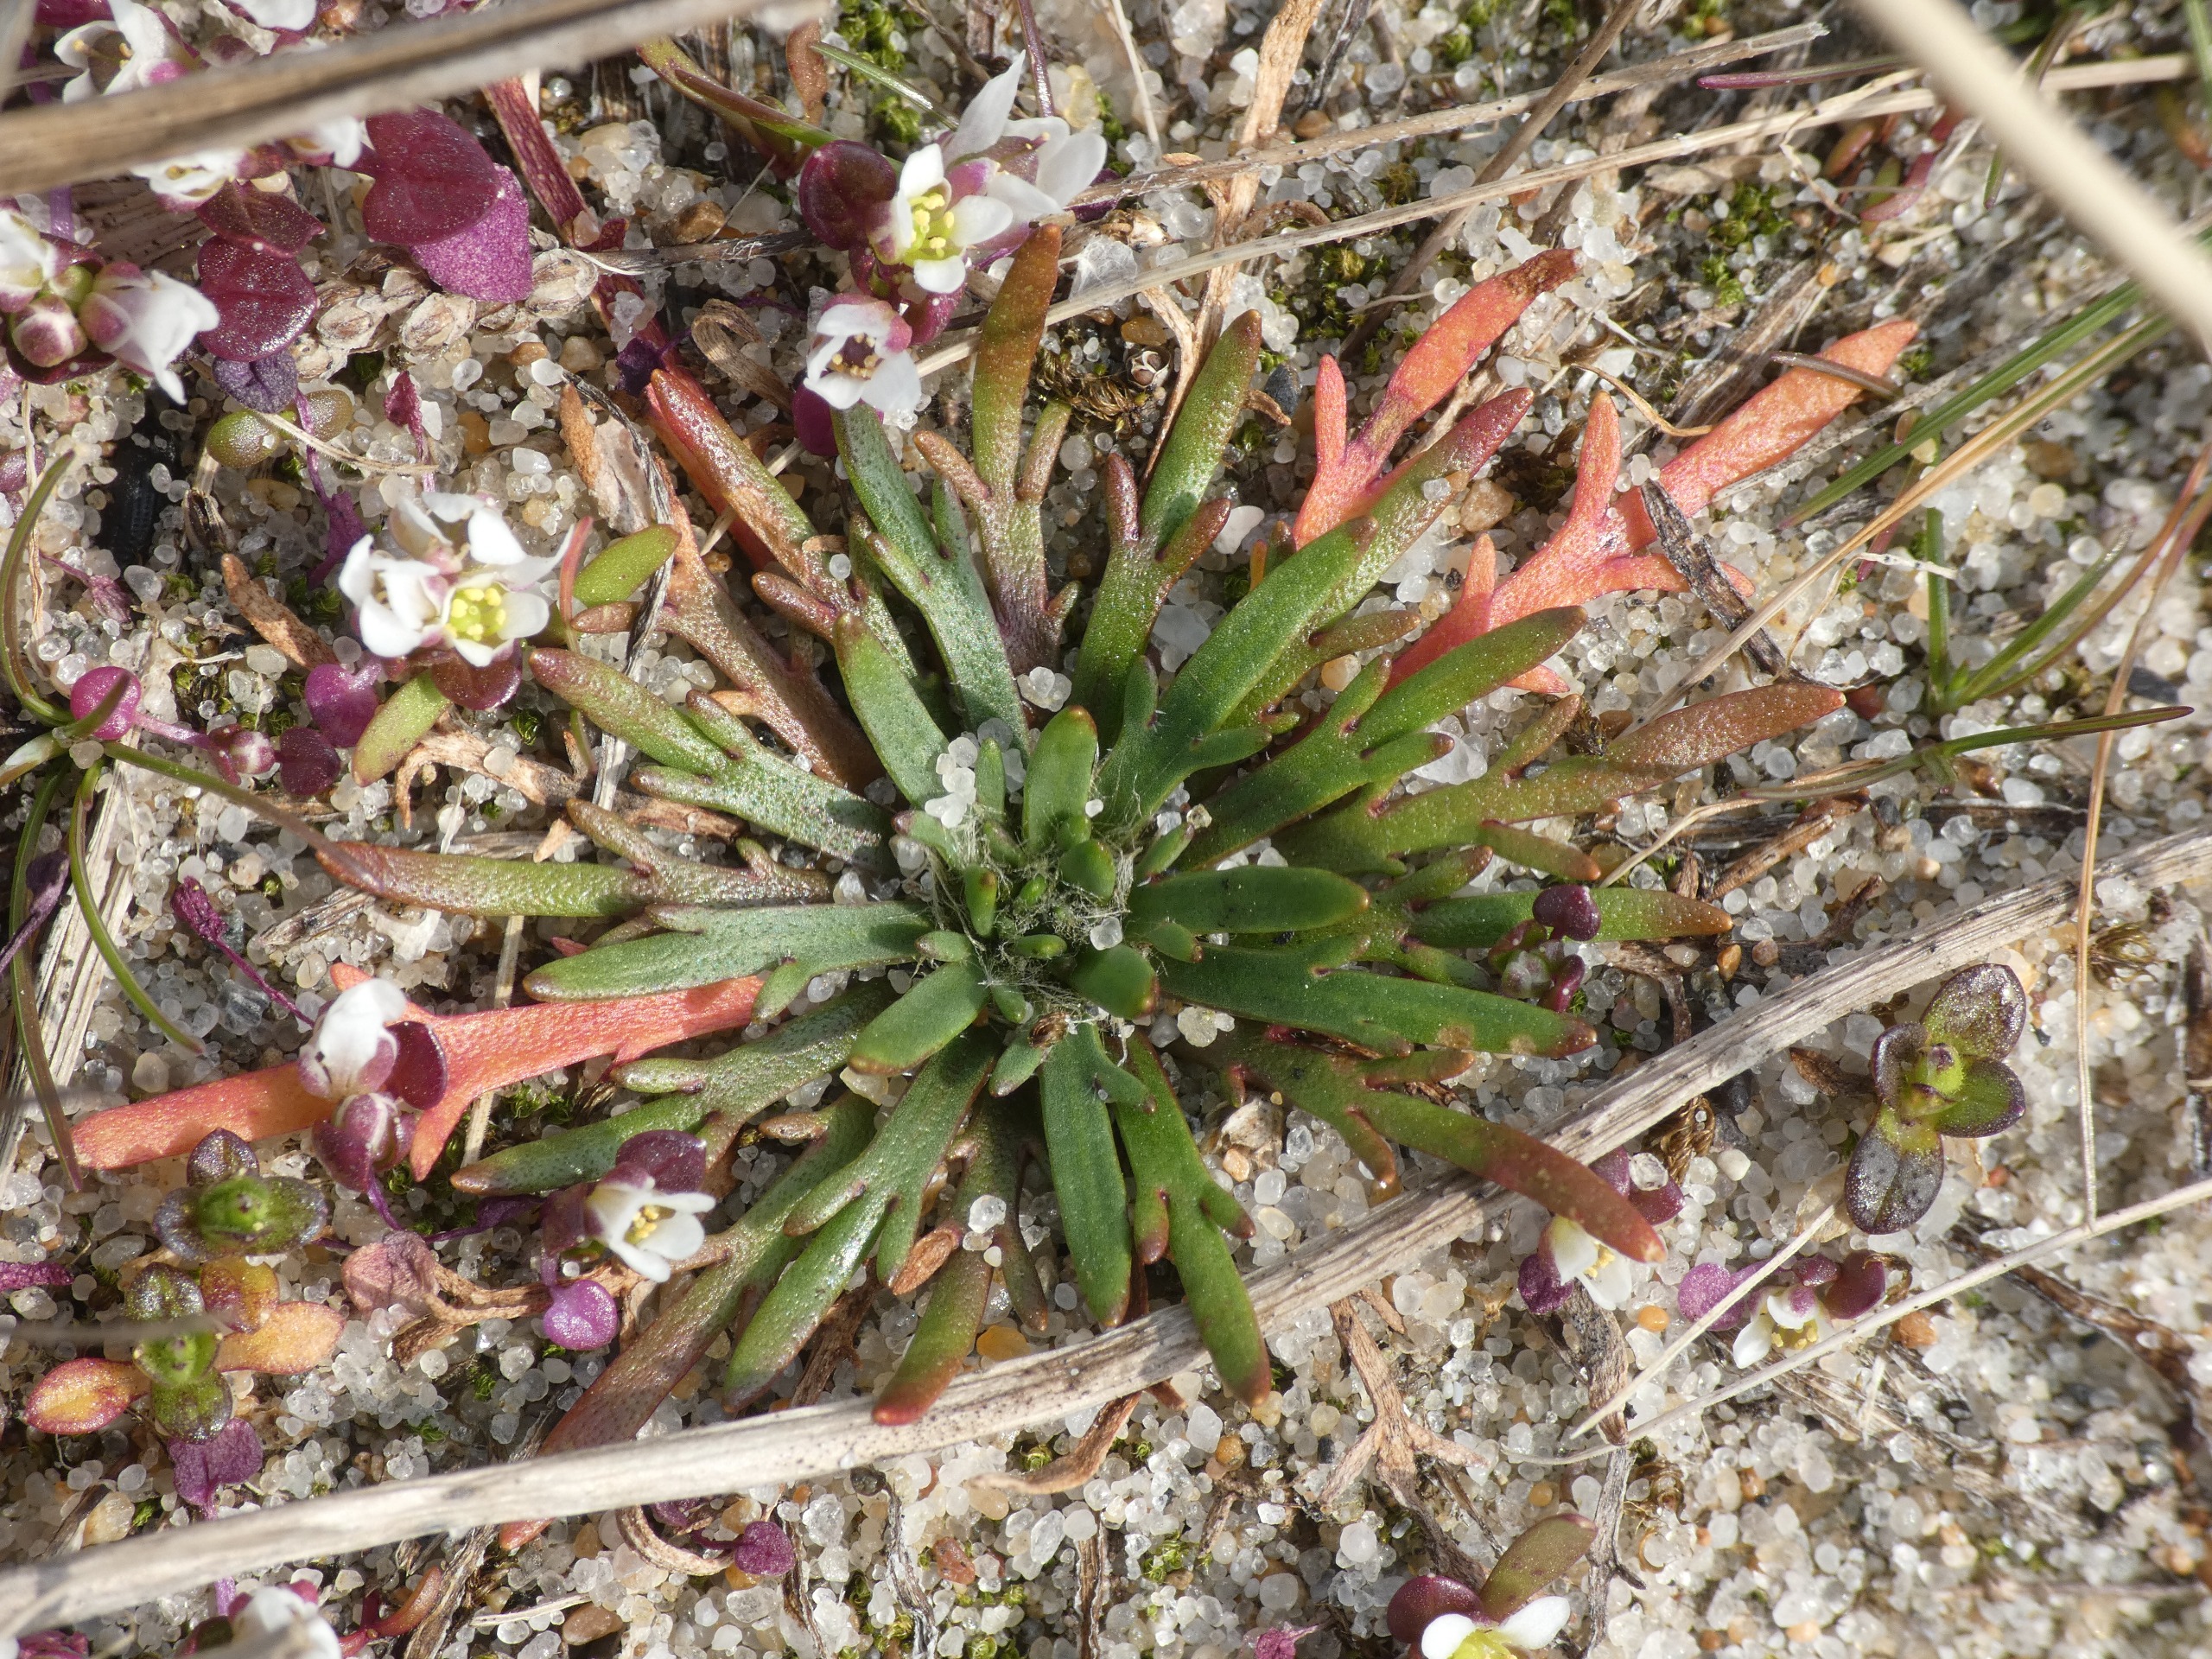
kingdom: Plantae
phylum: Tracheophyta
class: Magnoliopsida
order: Lamiales
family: Plantaginaceae
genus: Plantago
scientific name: Plantago coronopus
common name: Fliget vejbred
